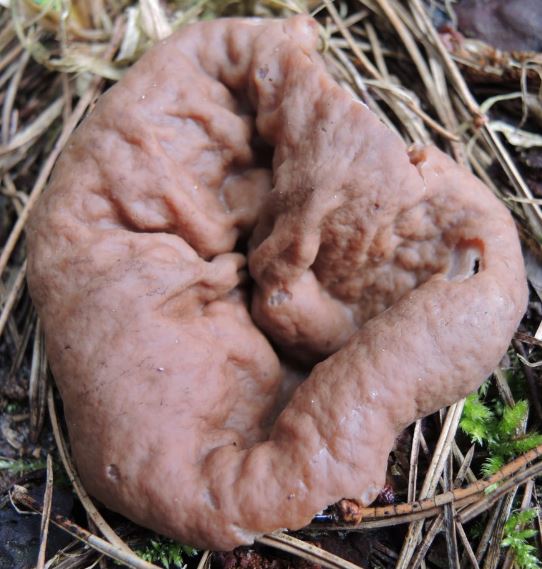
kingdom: Fungi
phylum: Ascomycota
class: Pezizomycetes
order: Pezizales
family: Discinaceae
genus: Discina
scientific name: Discina ancilis
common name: udbredt stenmorkel
